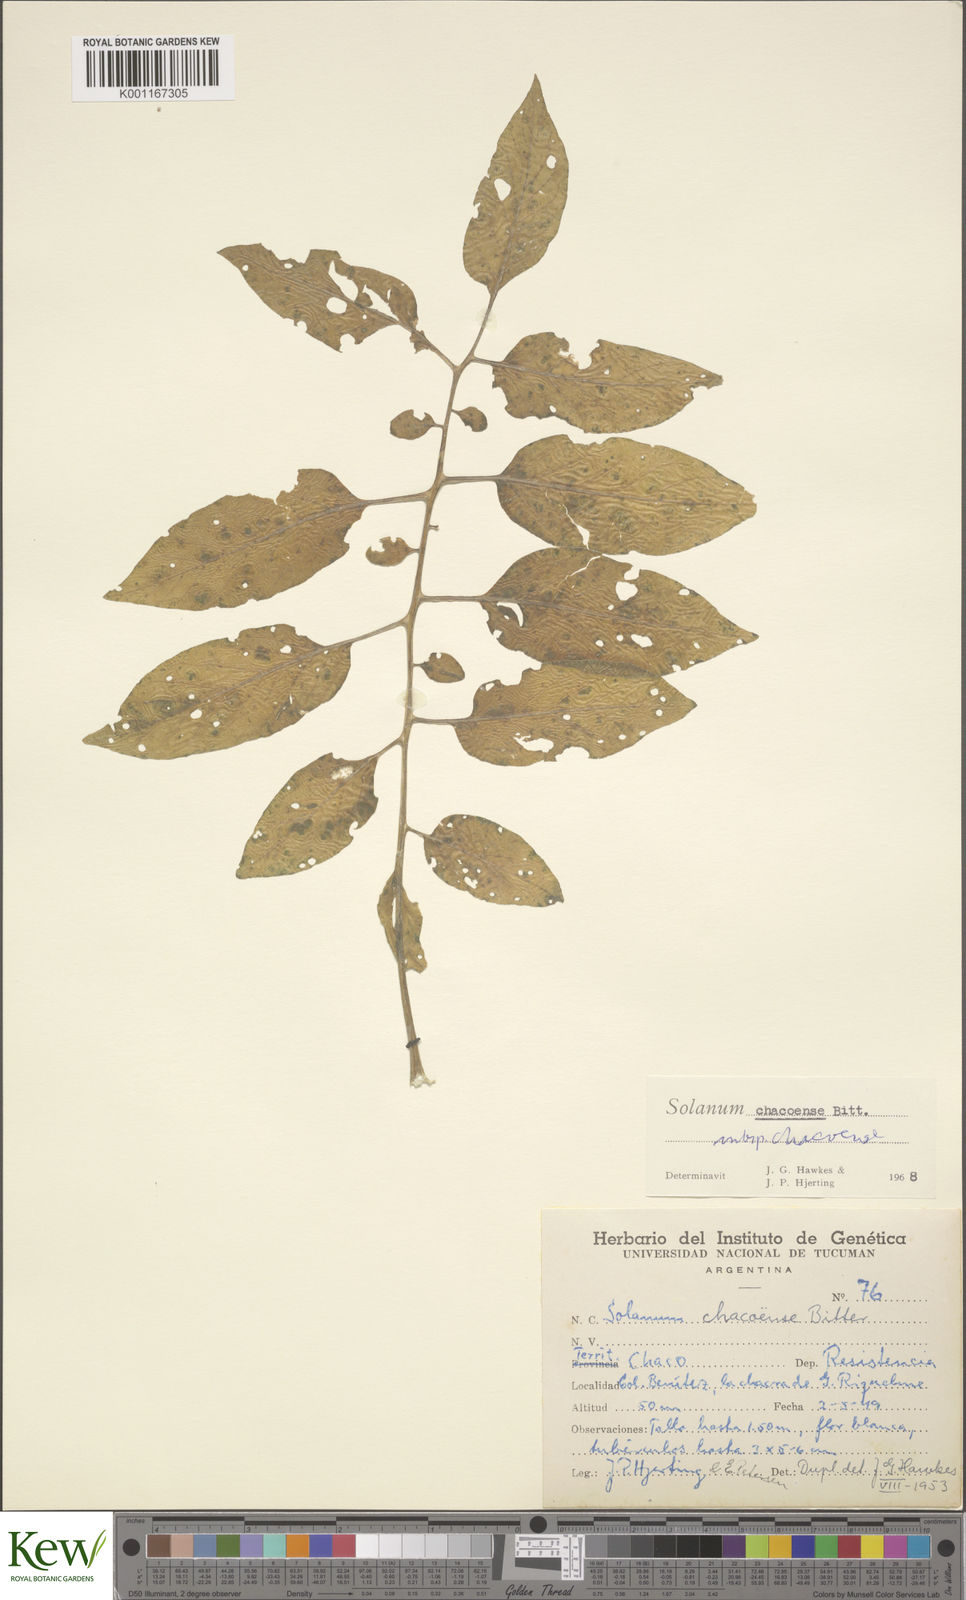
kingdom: Plantae
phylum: Tracheophyta
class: Magnoliopsida
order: Solanales
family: Solanaceae
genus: Solanum
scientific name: Solanum chacoense
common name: Chaco potato
